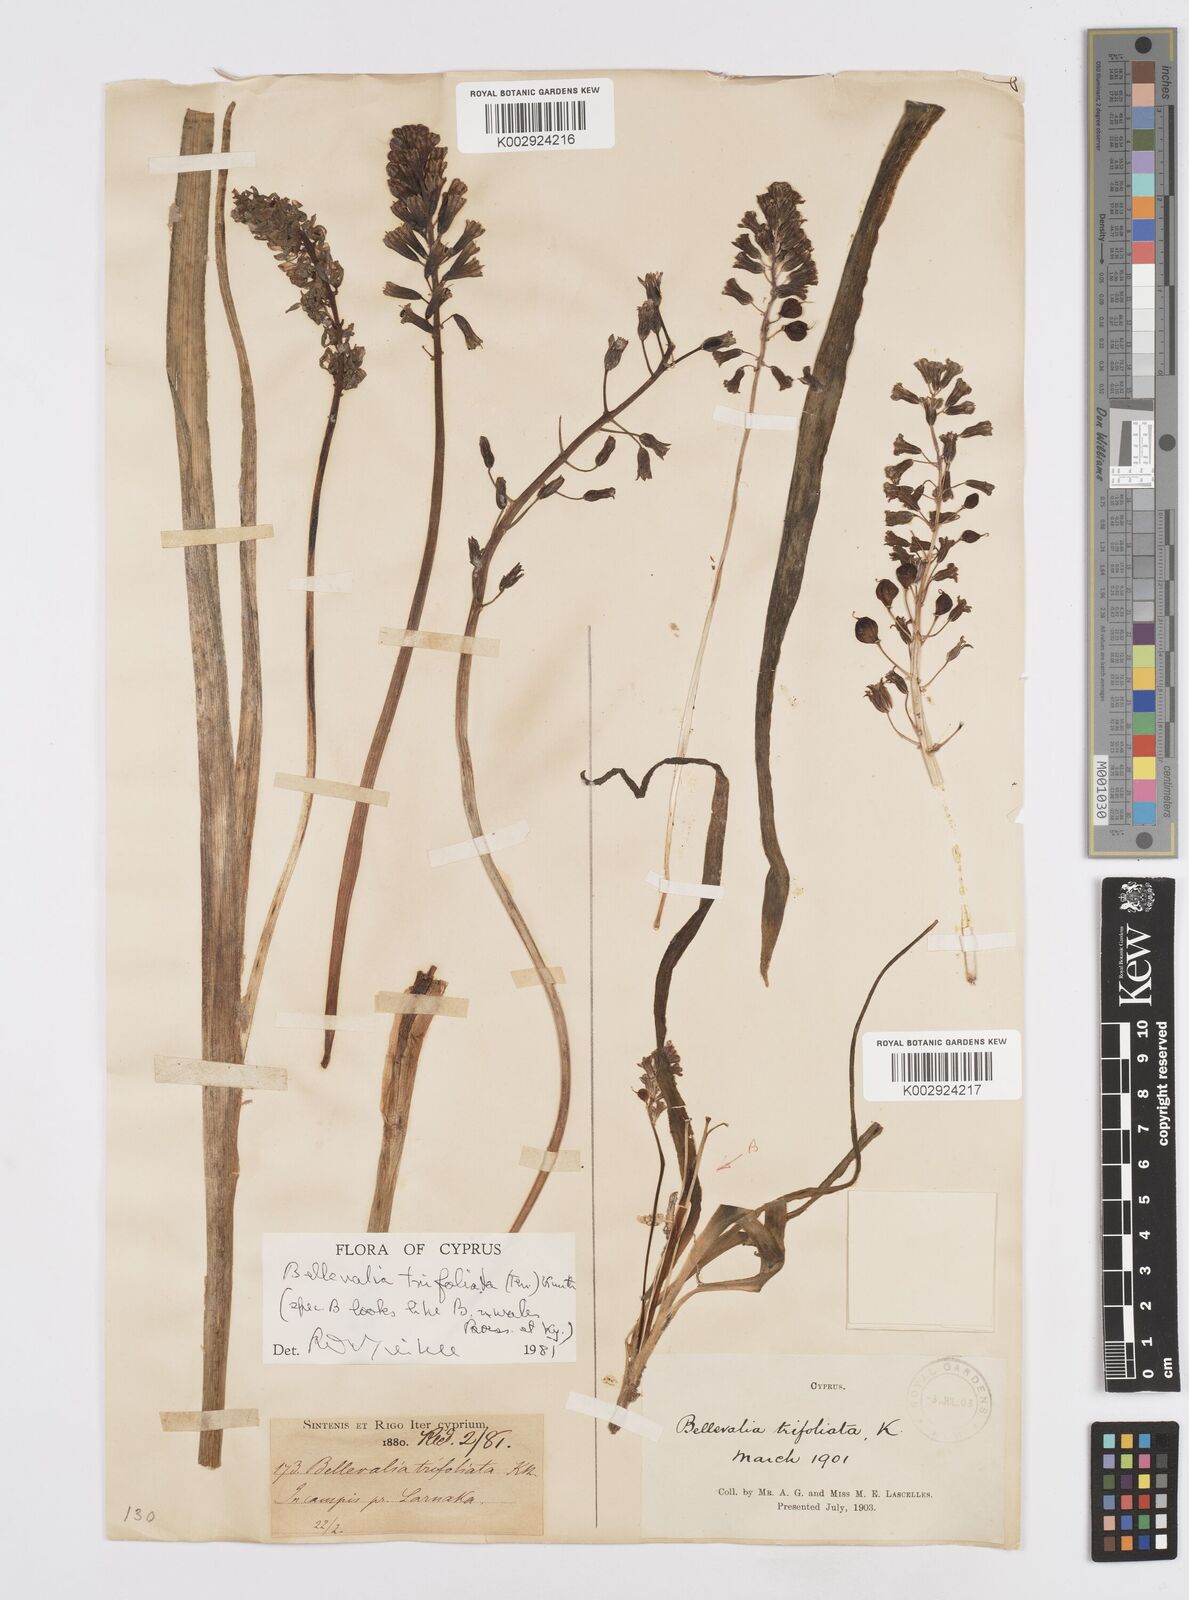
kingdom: Plantae
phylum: Tracheophyta
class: Liliopsida
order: Asparagales
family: Asparagaceae
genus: Bellevalia
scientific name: Bellevalia trifoliata
